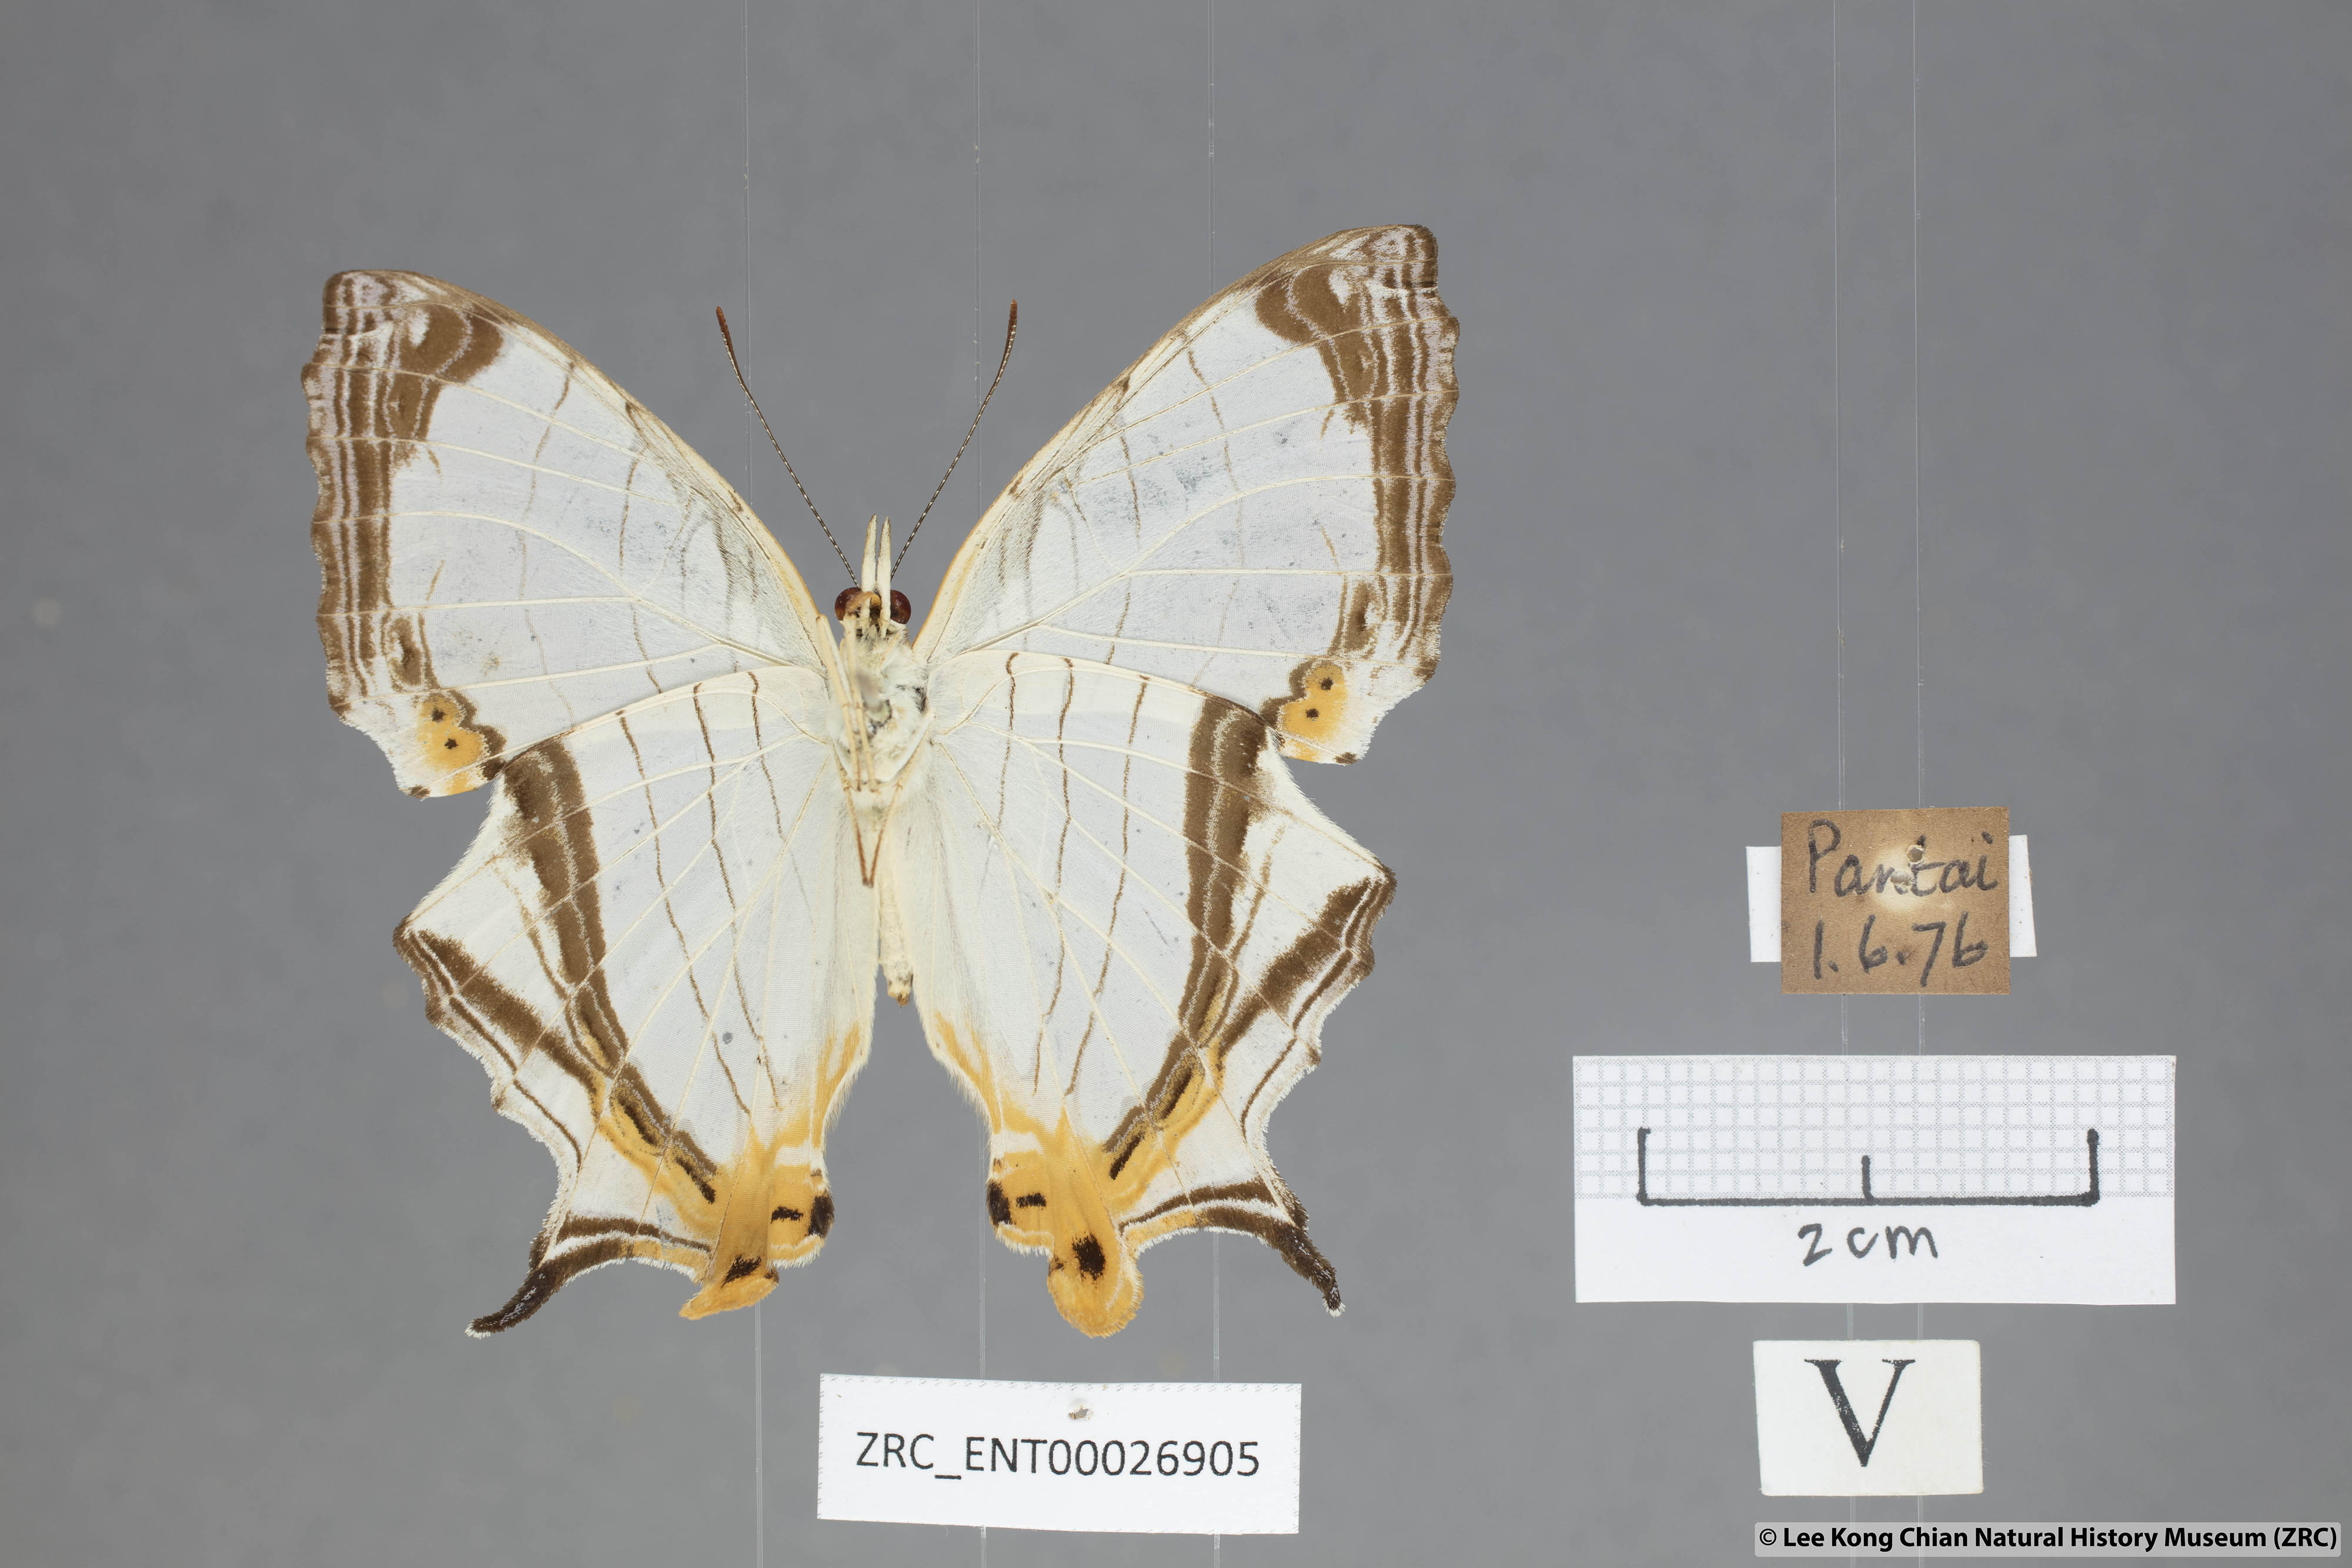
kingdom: Animalia
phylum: Arthropoda
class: Insecta
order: Lepidoptera
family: Nymphalidae
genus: Cyrestis
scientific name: Cyrestis nivea
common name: Straight line mapwing
